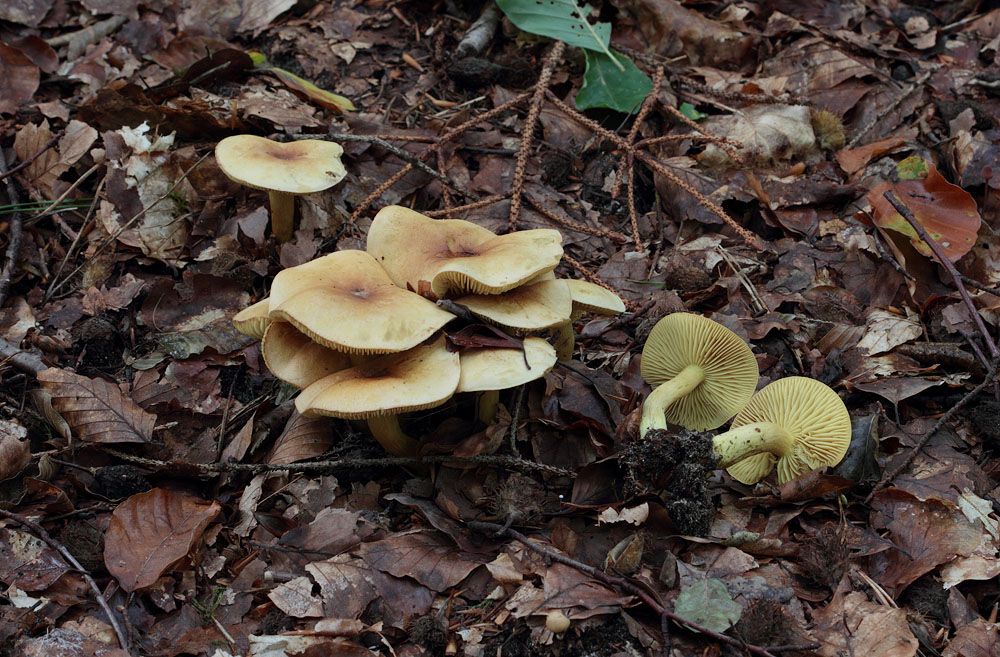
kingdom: Fungi
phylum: Basidiomycota
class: Agaricomycetes
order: Agaricales
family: Tricholomataceae
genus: Tricholoma
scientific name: Tricholoma sulphureum
